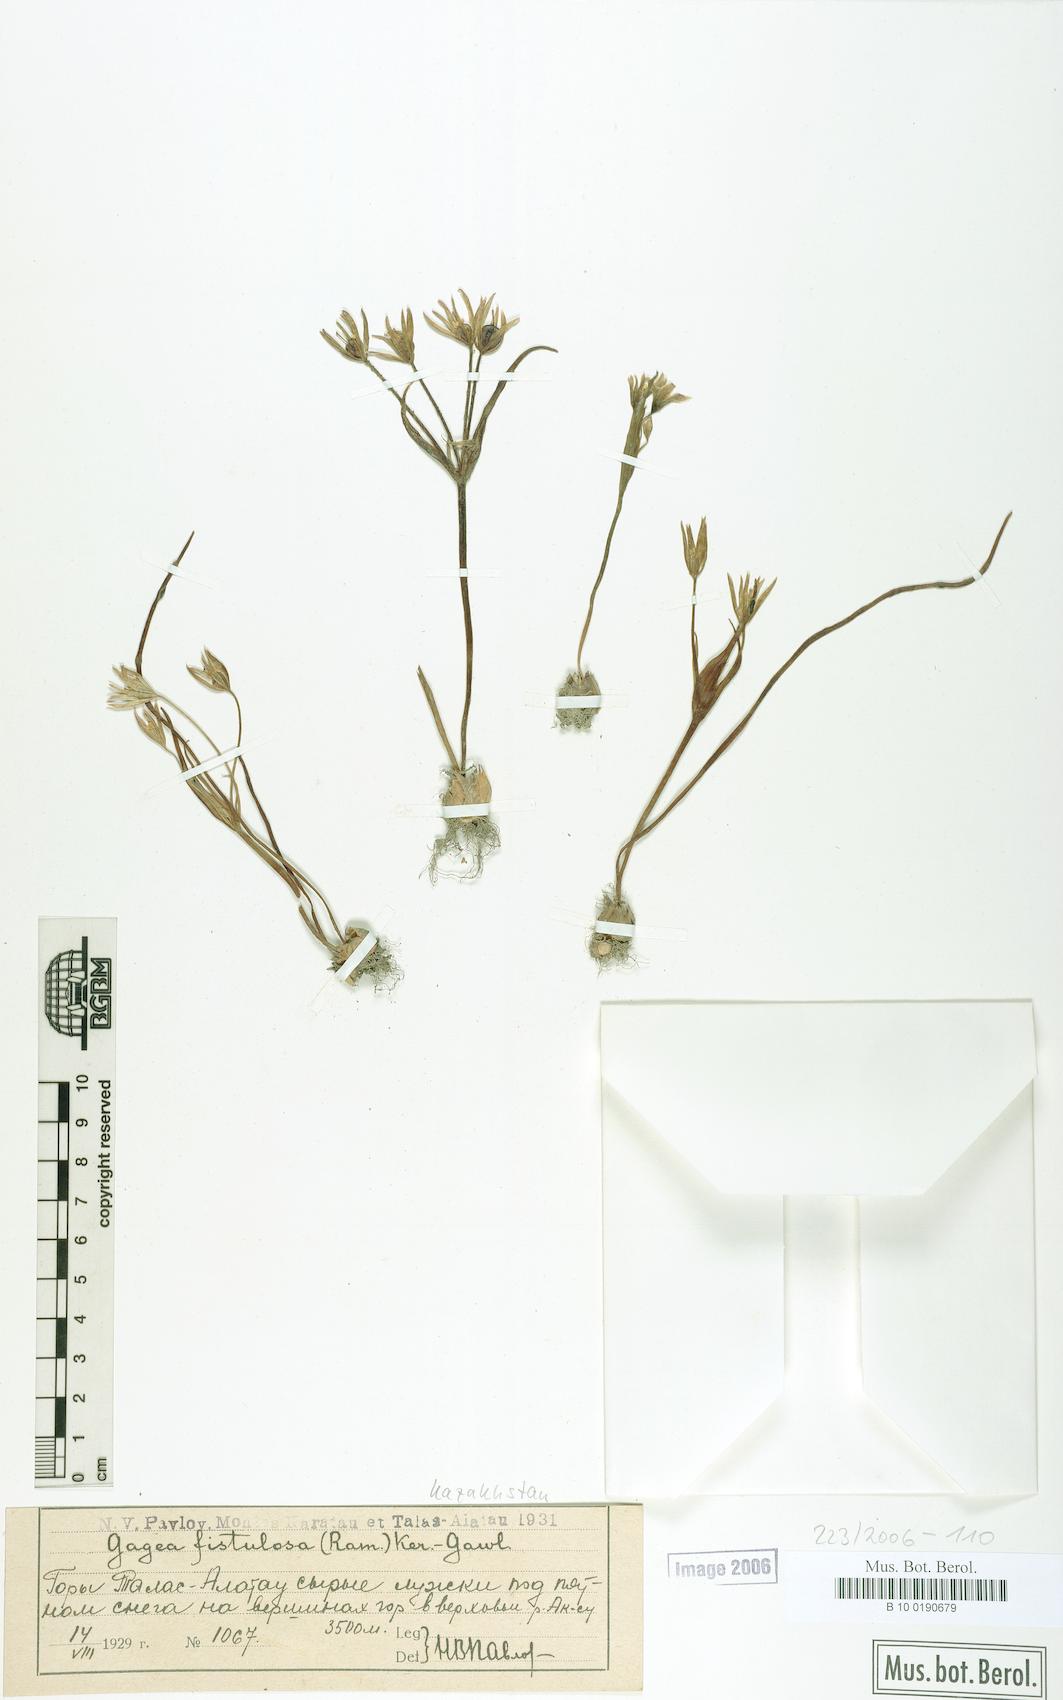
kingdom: Plantae
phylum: Tracheophyta
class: Liliopsida
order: Liliales
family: Liliaceae
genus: Gagea
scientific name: Gagea bohemica
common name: Early star-of-bethlehem
